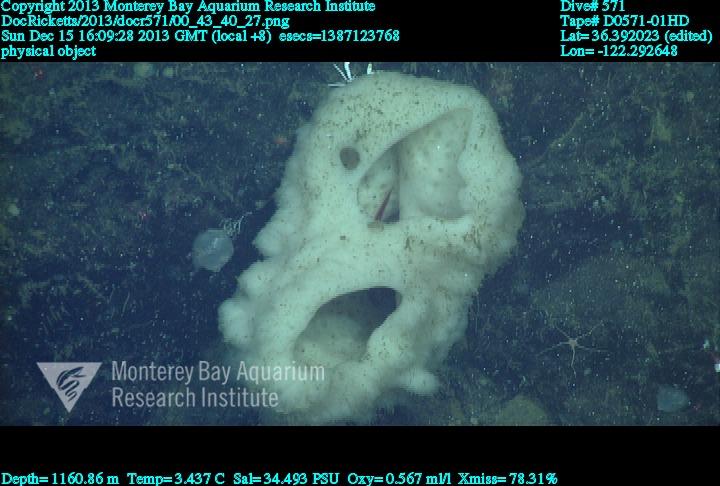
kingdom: Animalia
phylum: Porifera
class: Hexactinellida
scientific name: Hexactinellida
